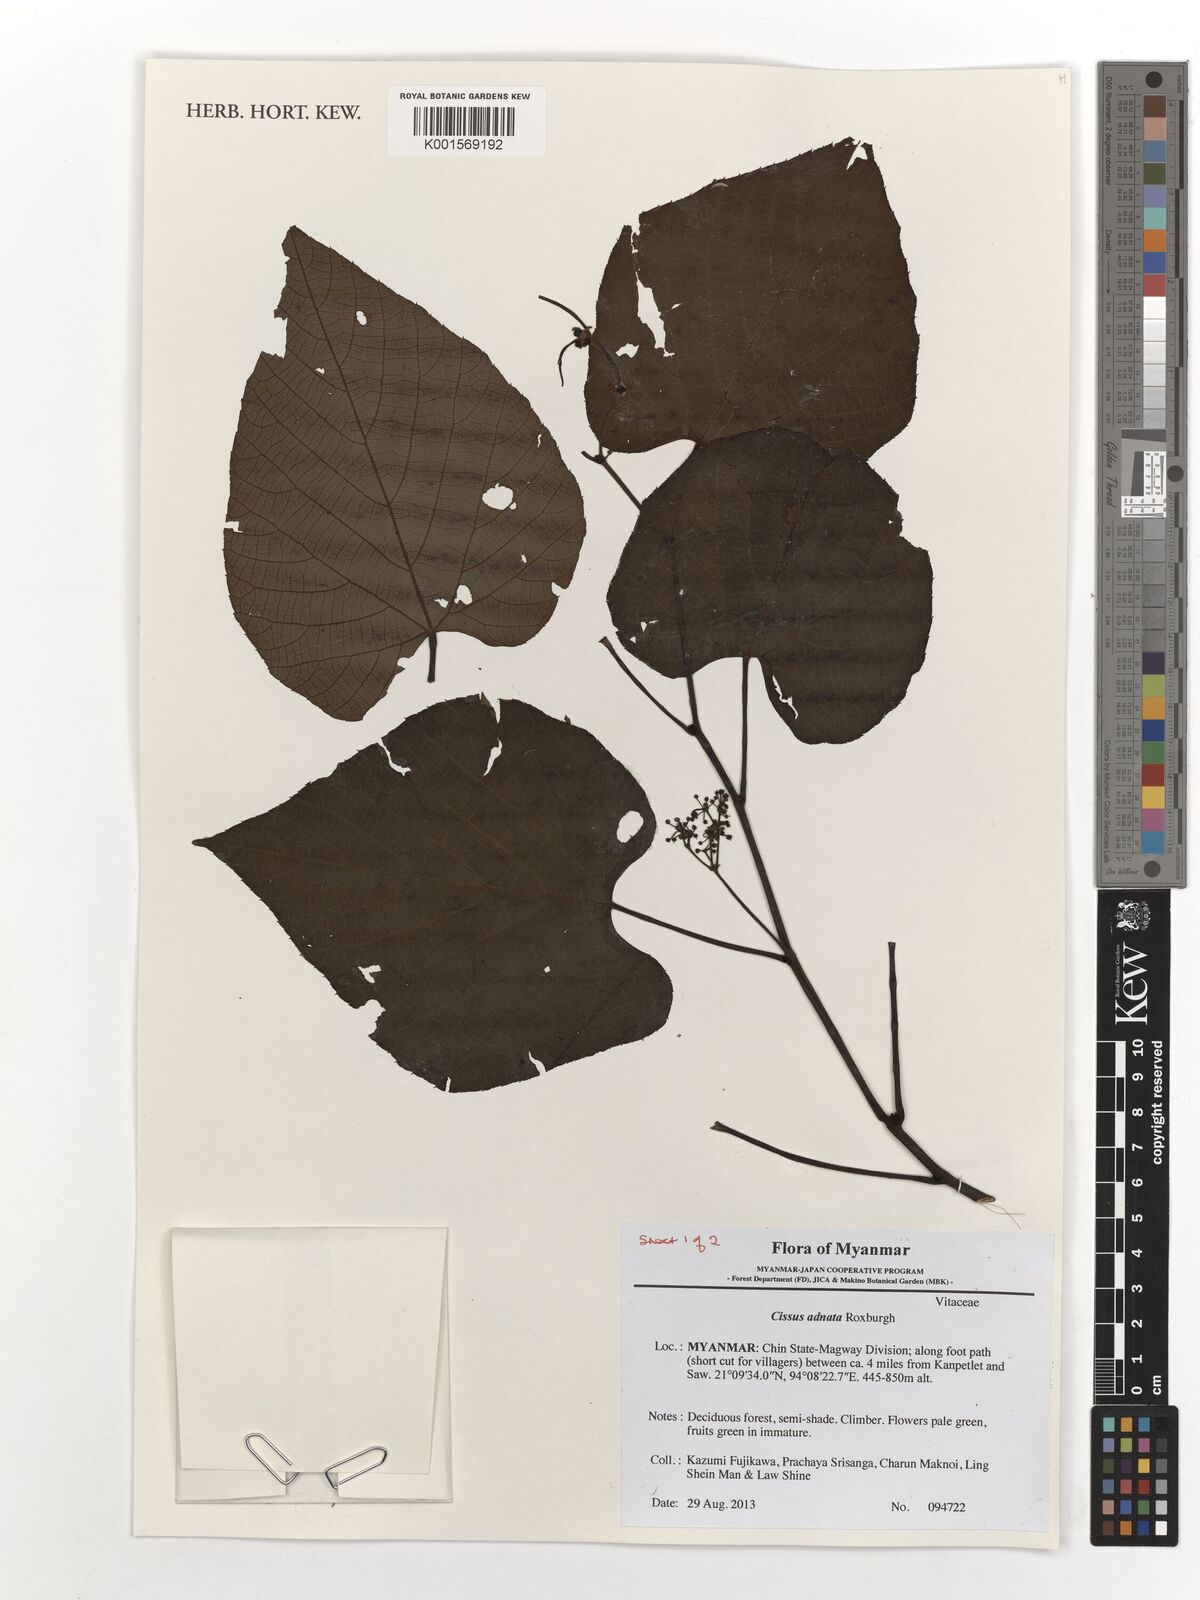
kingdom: Plantae
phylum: Tracheophyta
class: Magnoliopsida
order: Vitales
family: Vitaceae
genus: Cissus
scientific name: Cissus adnata
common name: Heart-leaf-grape
